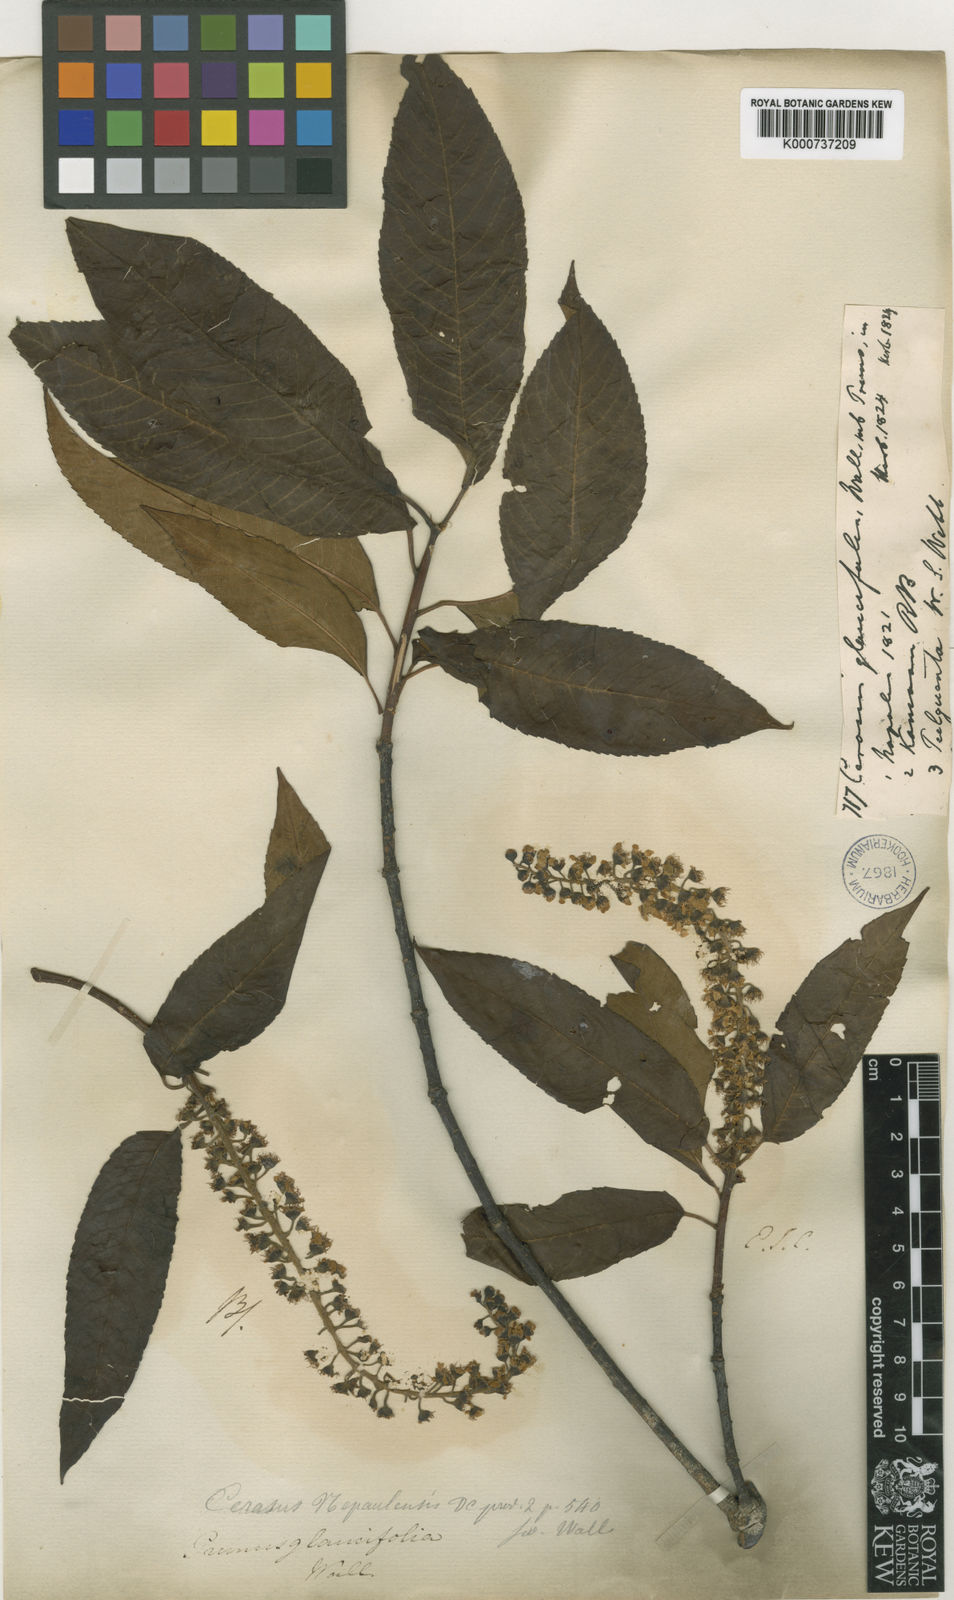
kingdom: Plantae
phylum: Tracheophyta
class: Magnoliopsida
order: Rosales
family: Rosaceae
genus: Prunus
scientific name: Prunus
